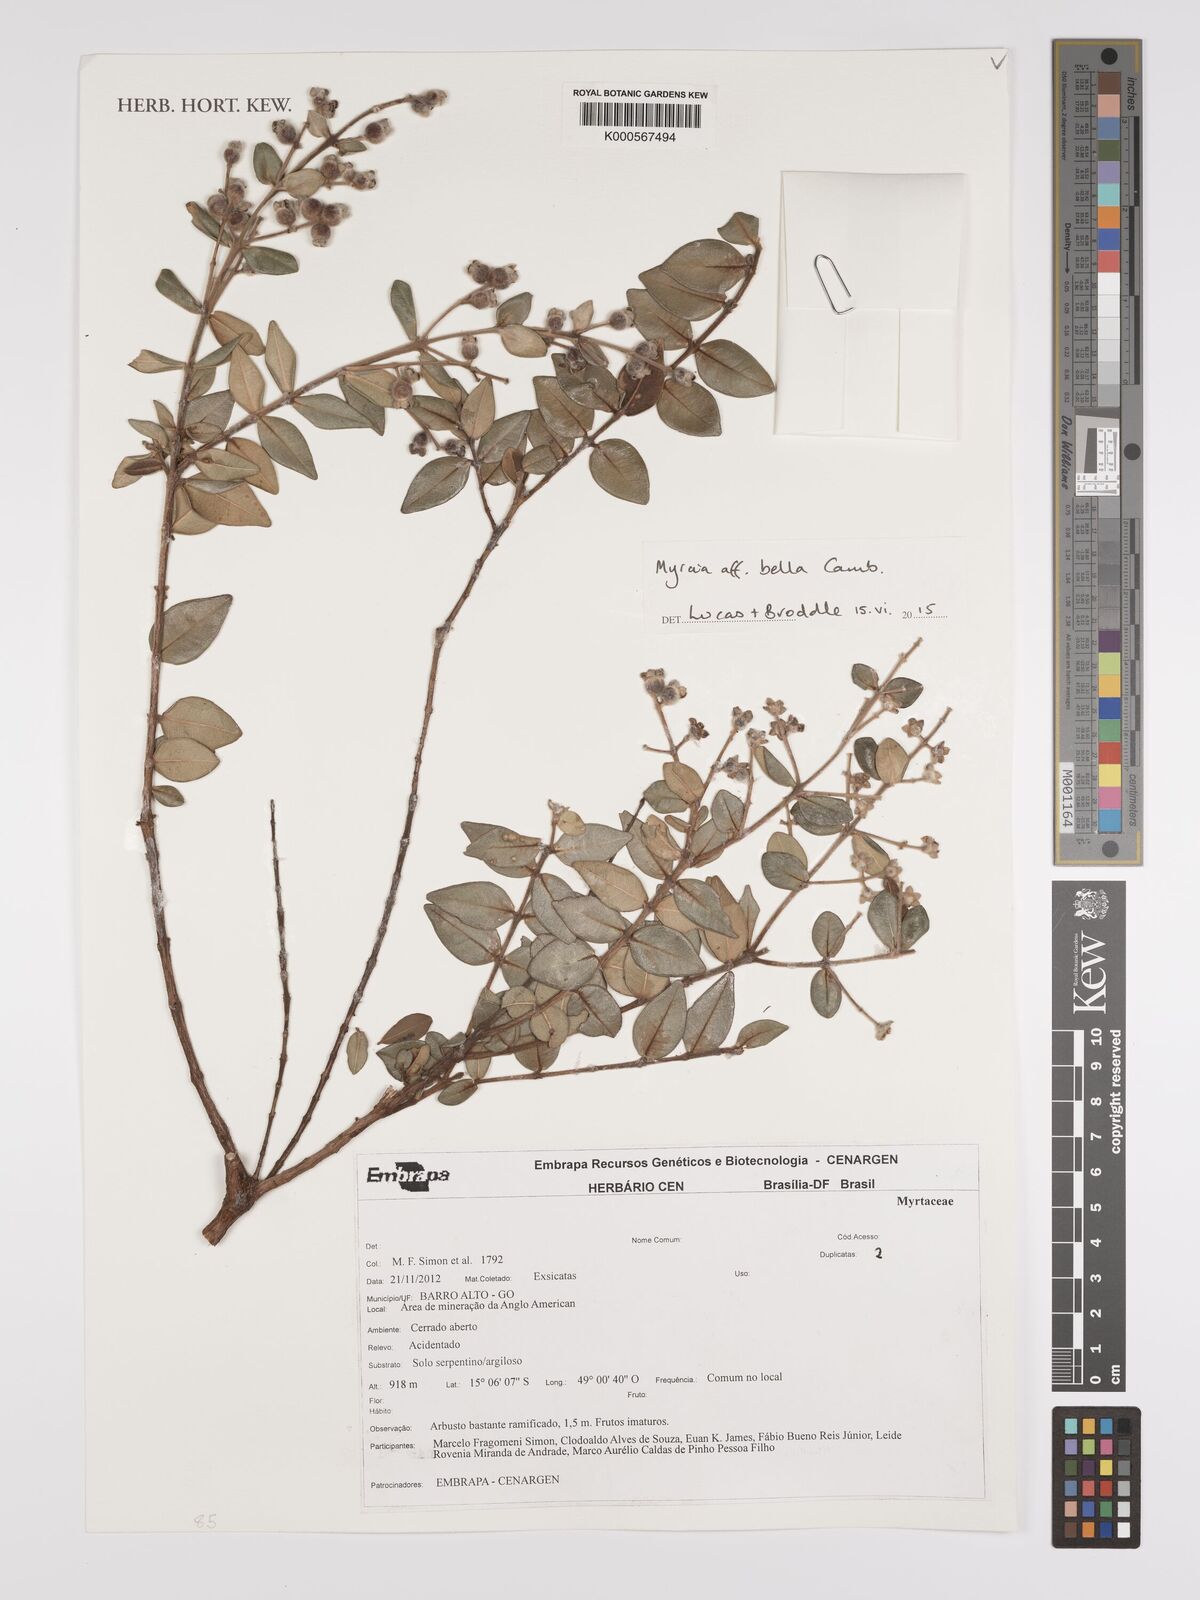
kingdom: Plantae
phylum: Tracheophyta
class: Magnoliopsida
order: Myrtales
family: Myrtaceae
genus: Myrcia
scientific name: Myrcia bella
